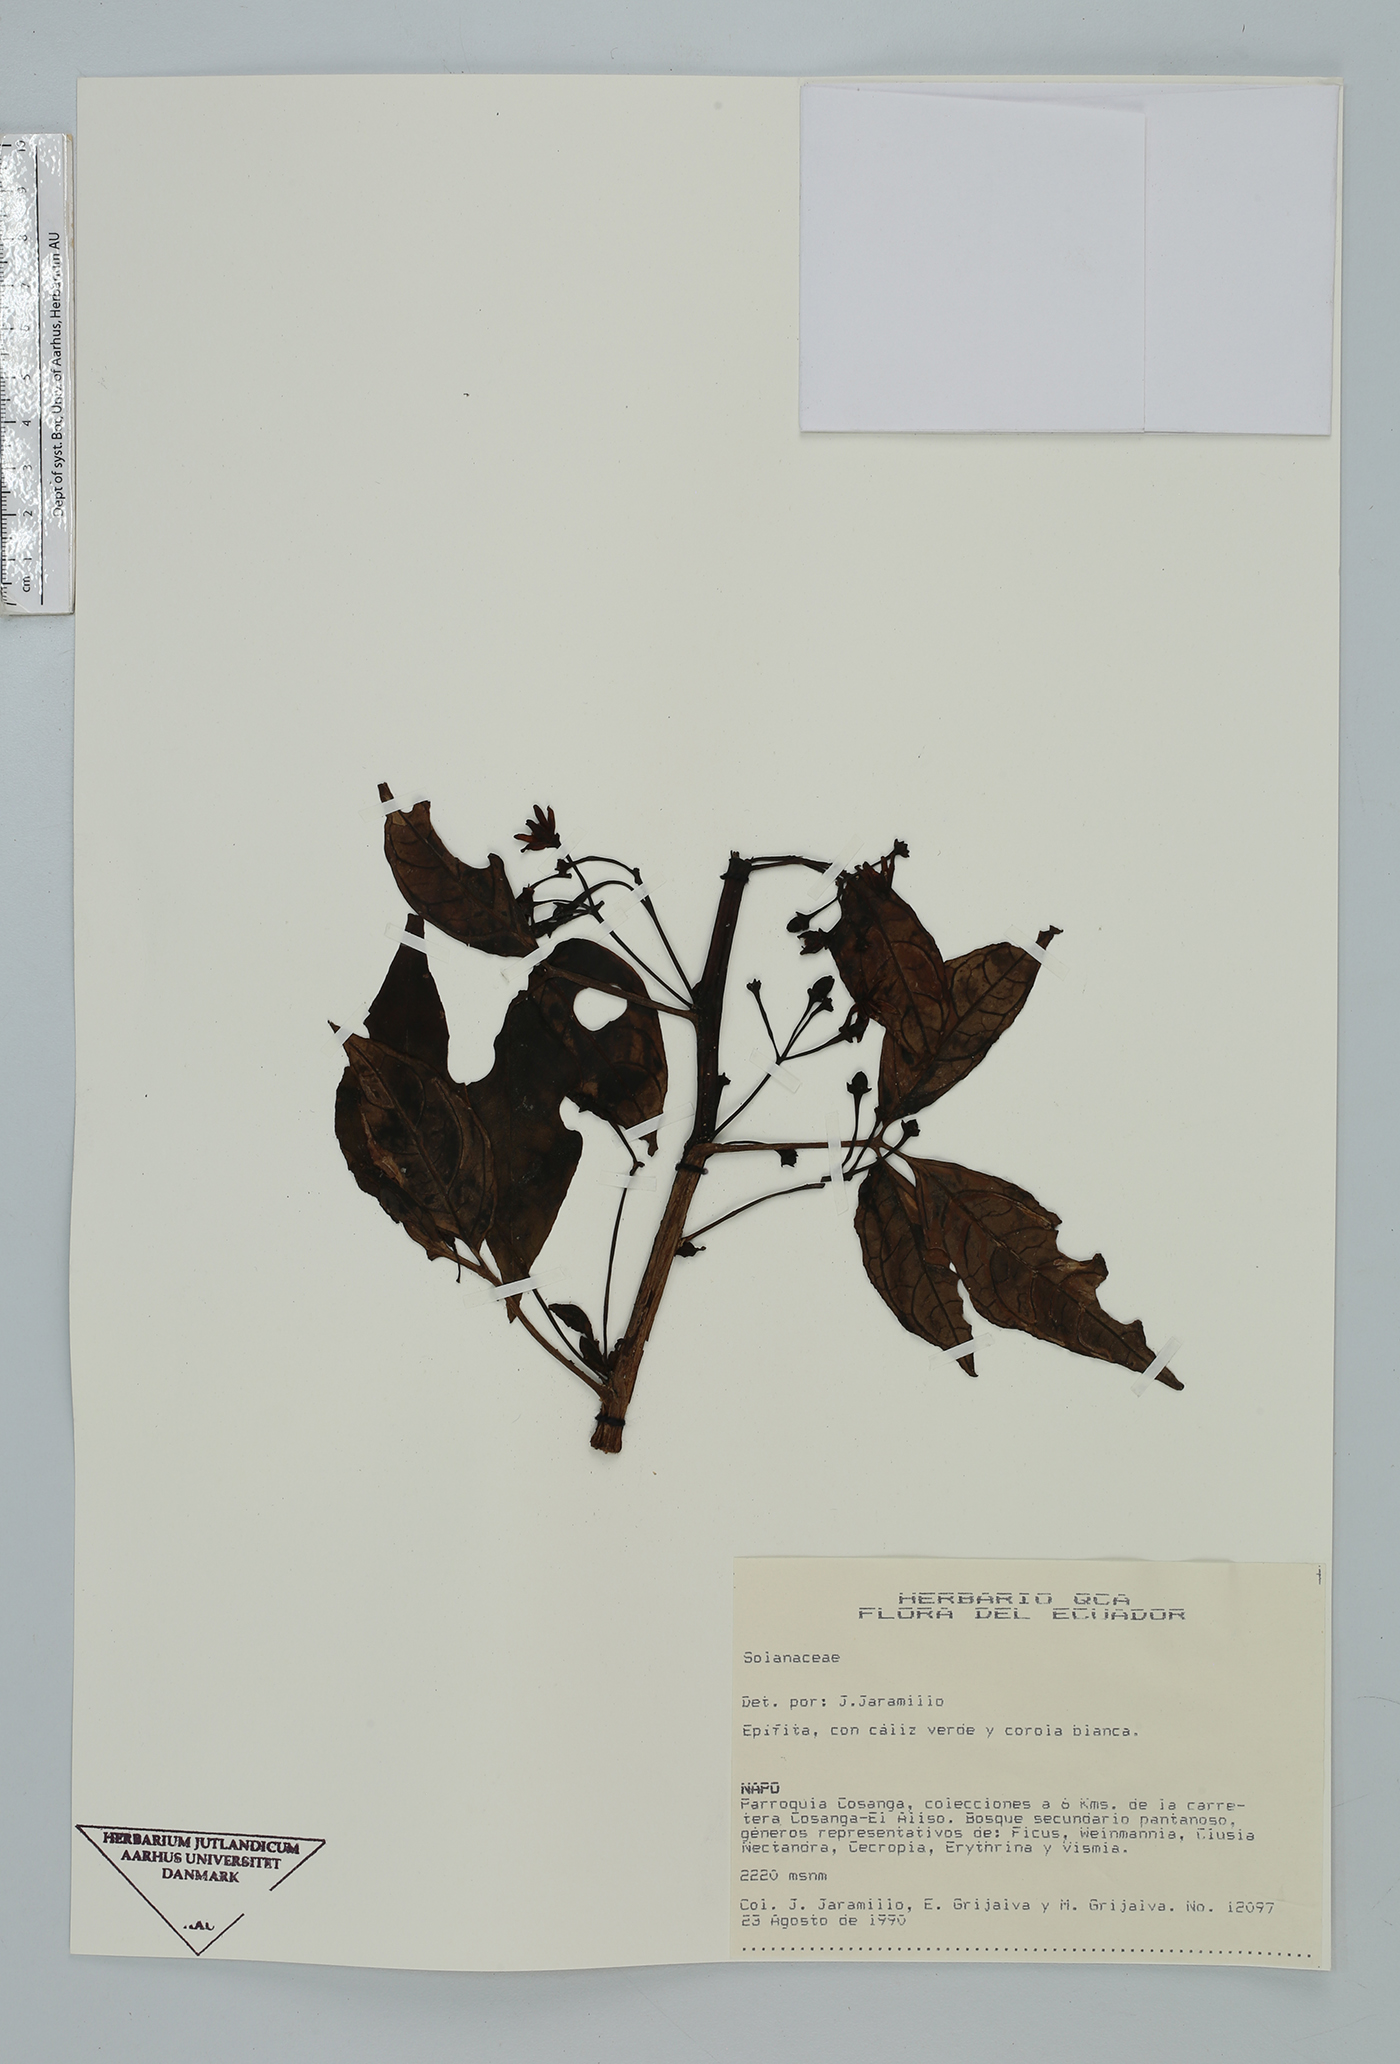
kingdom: Plantae
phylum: Tracheophyta
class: Magnoliopsida
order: Solanales
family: Solanaceae
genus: Solanum
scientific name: Solanum ternatum
